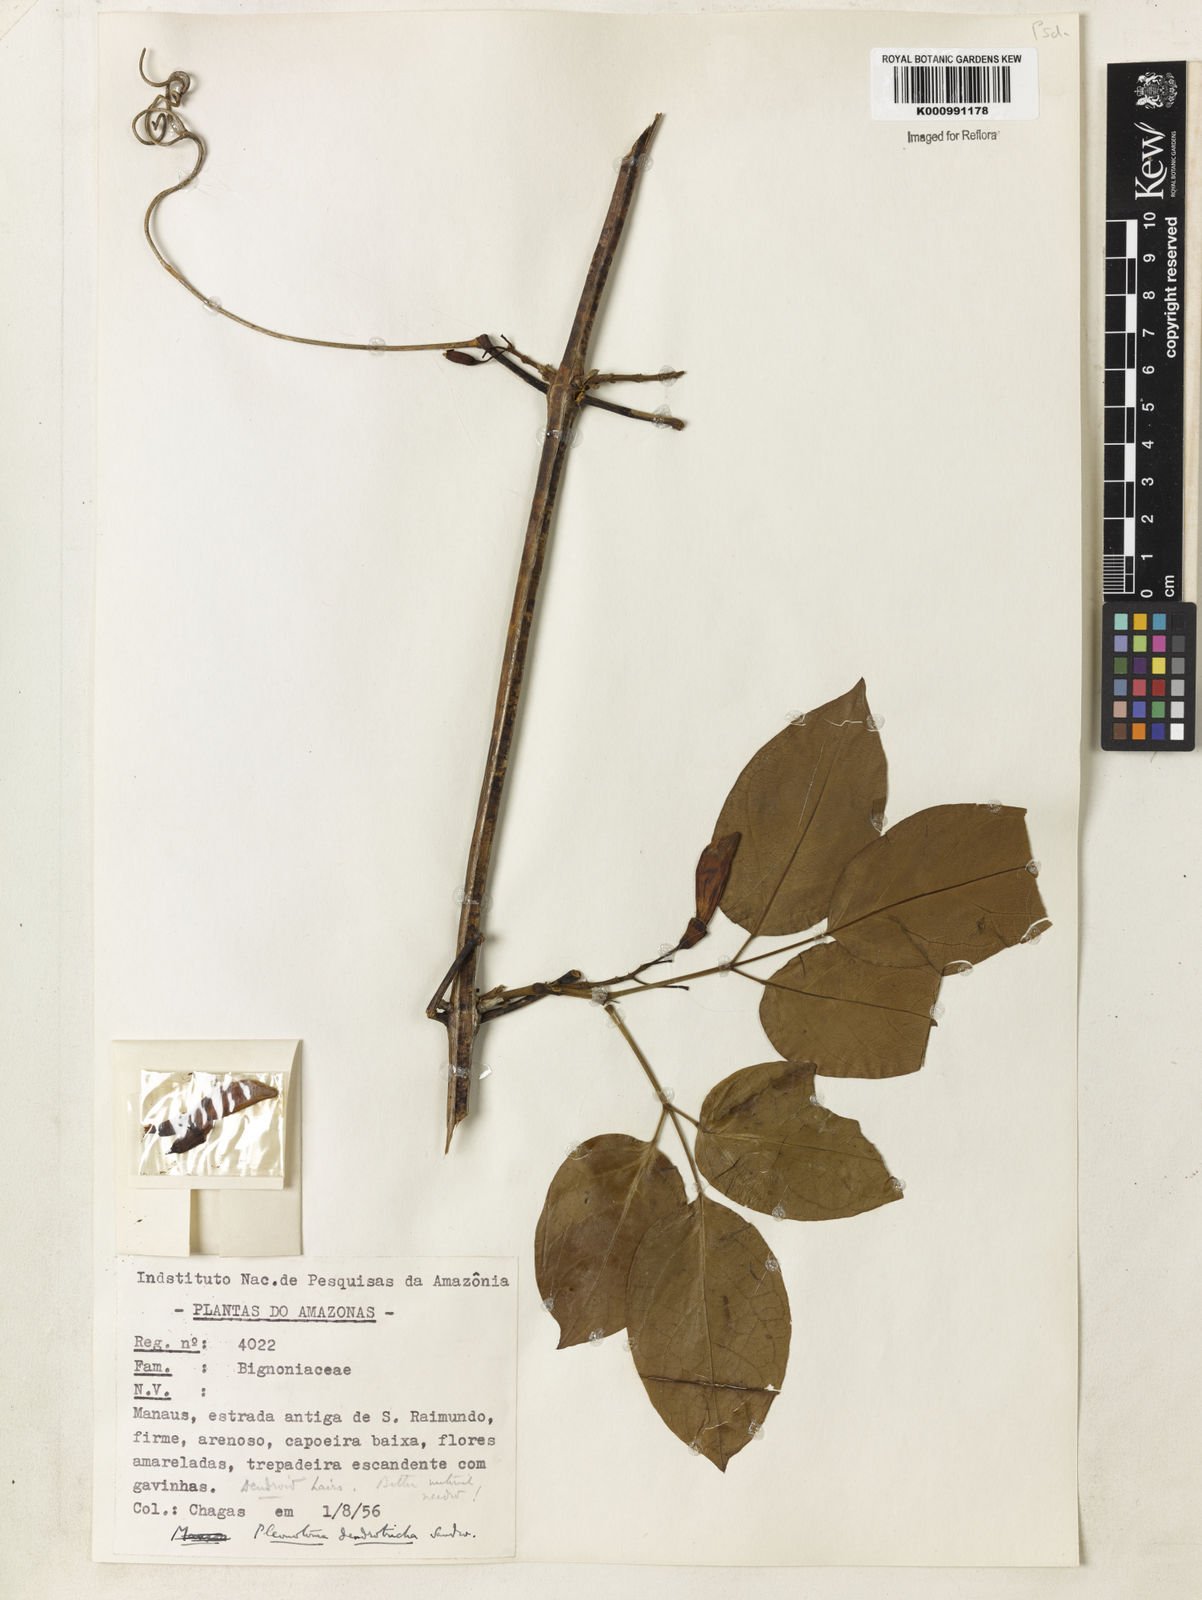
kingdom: Plantae
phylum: Tracheophyta
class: Magnoliopsida
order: Lamiales
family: Bignoniaceae
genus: Pleonotoma
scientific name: Pleonotoma dendrotricha
